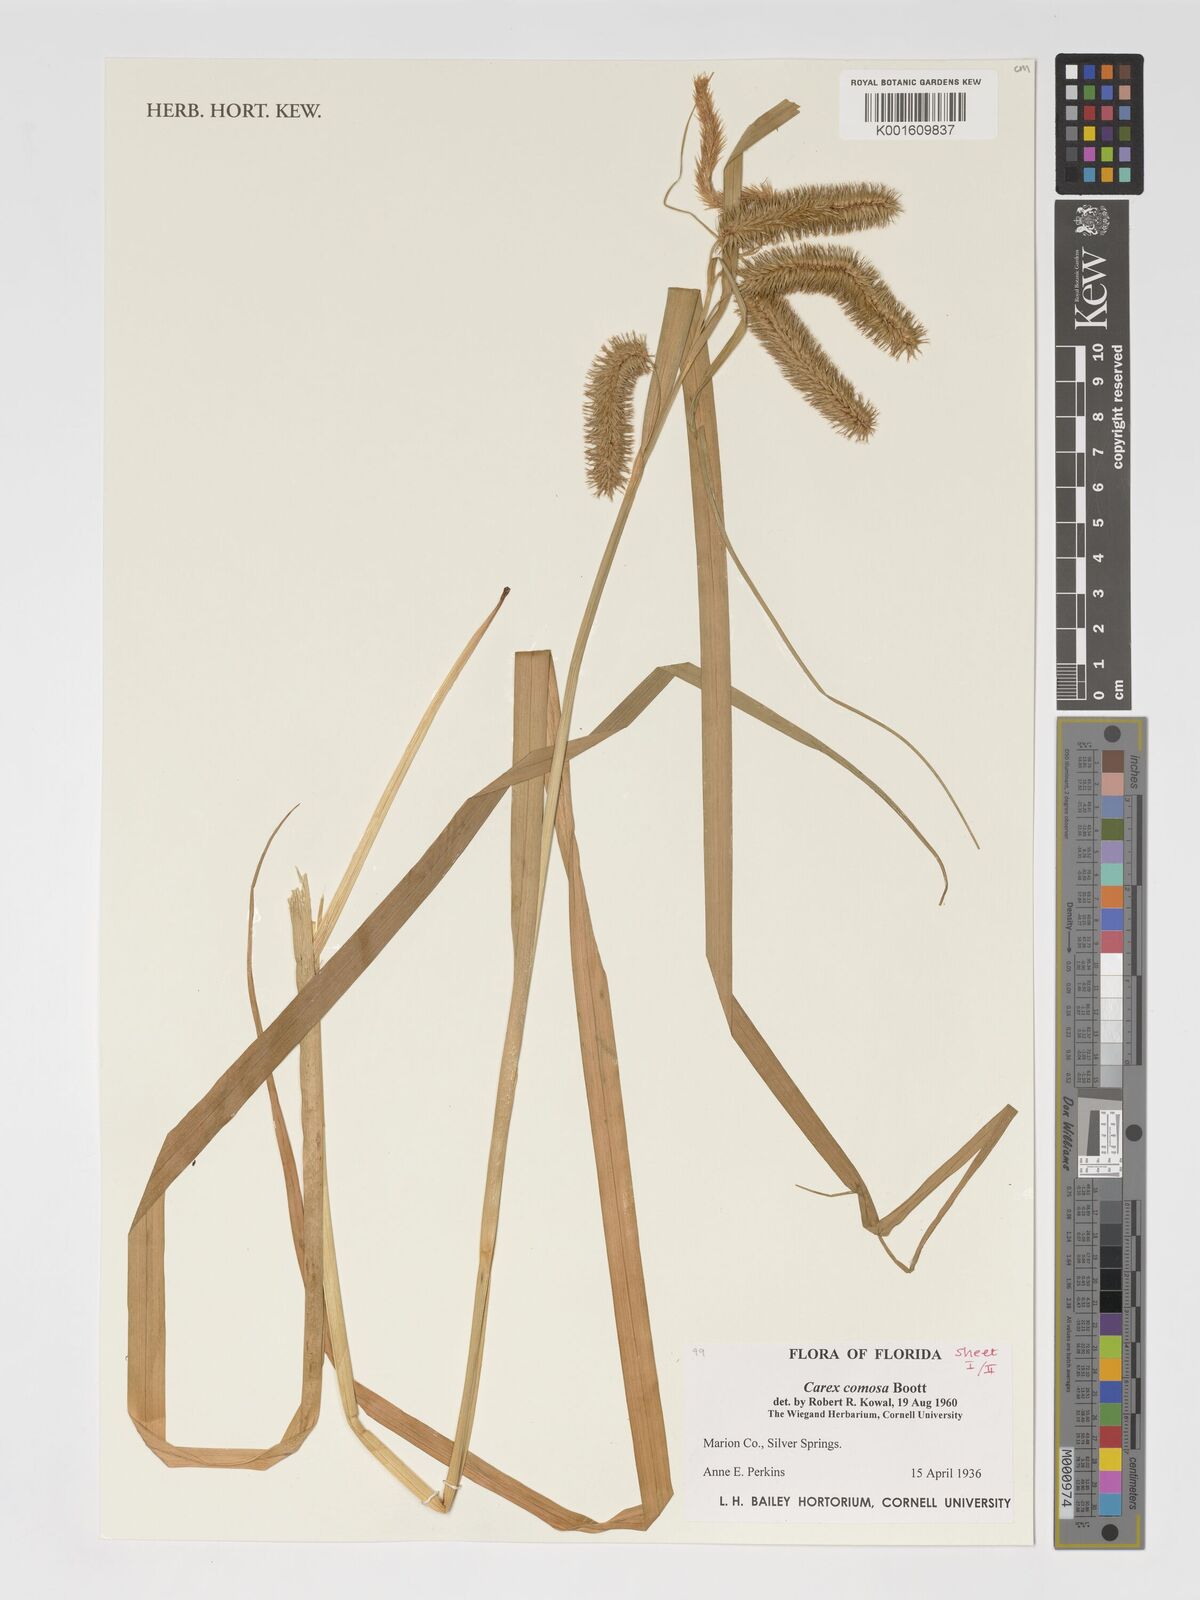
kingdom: Plantae
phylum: Tracheophyta
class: Liliopsida
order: Poales
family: Cyperaceae
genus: Carex
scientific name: Carex comosa
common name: Bristly sedge
